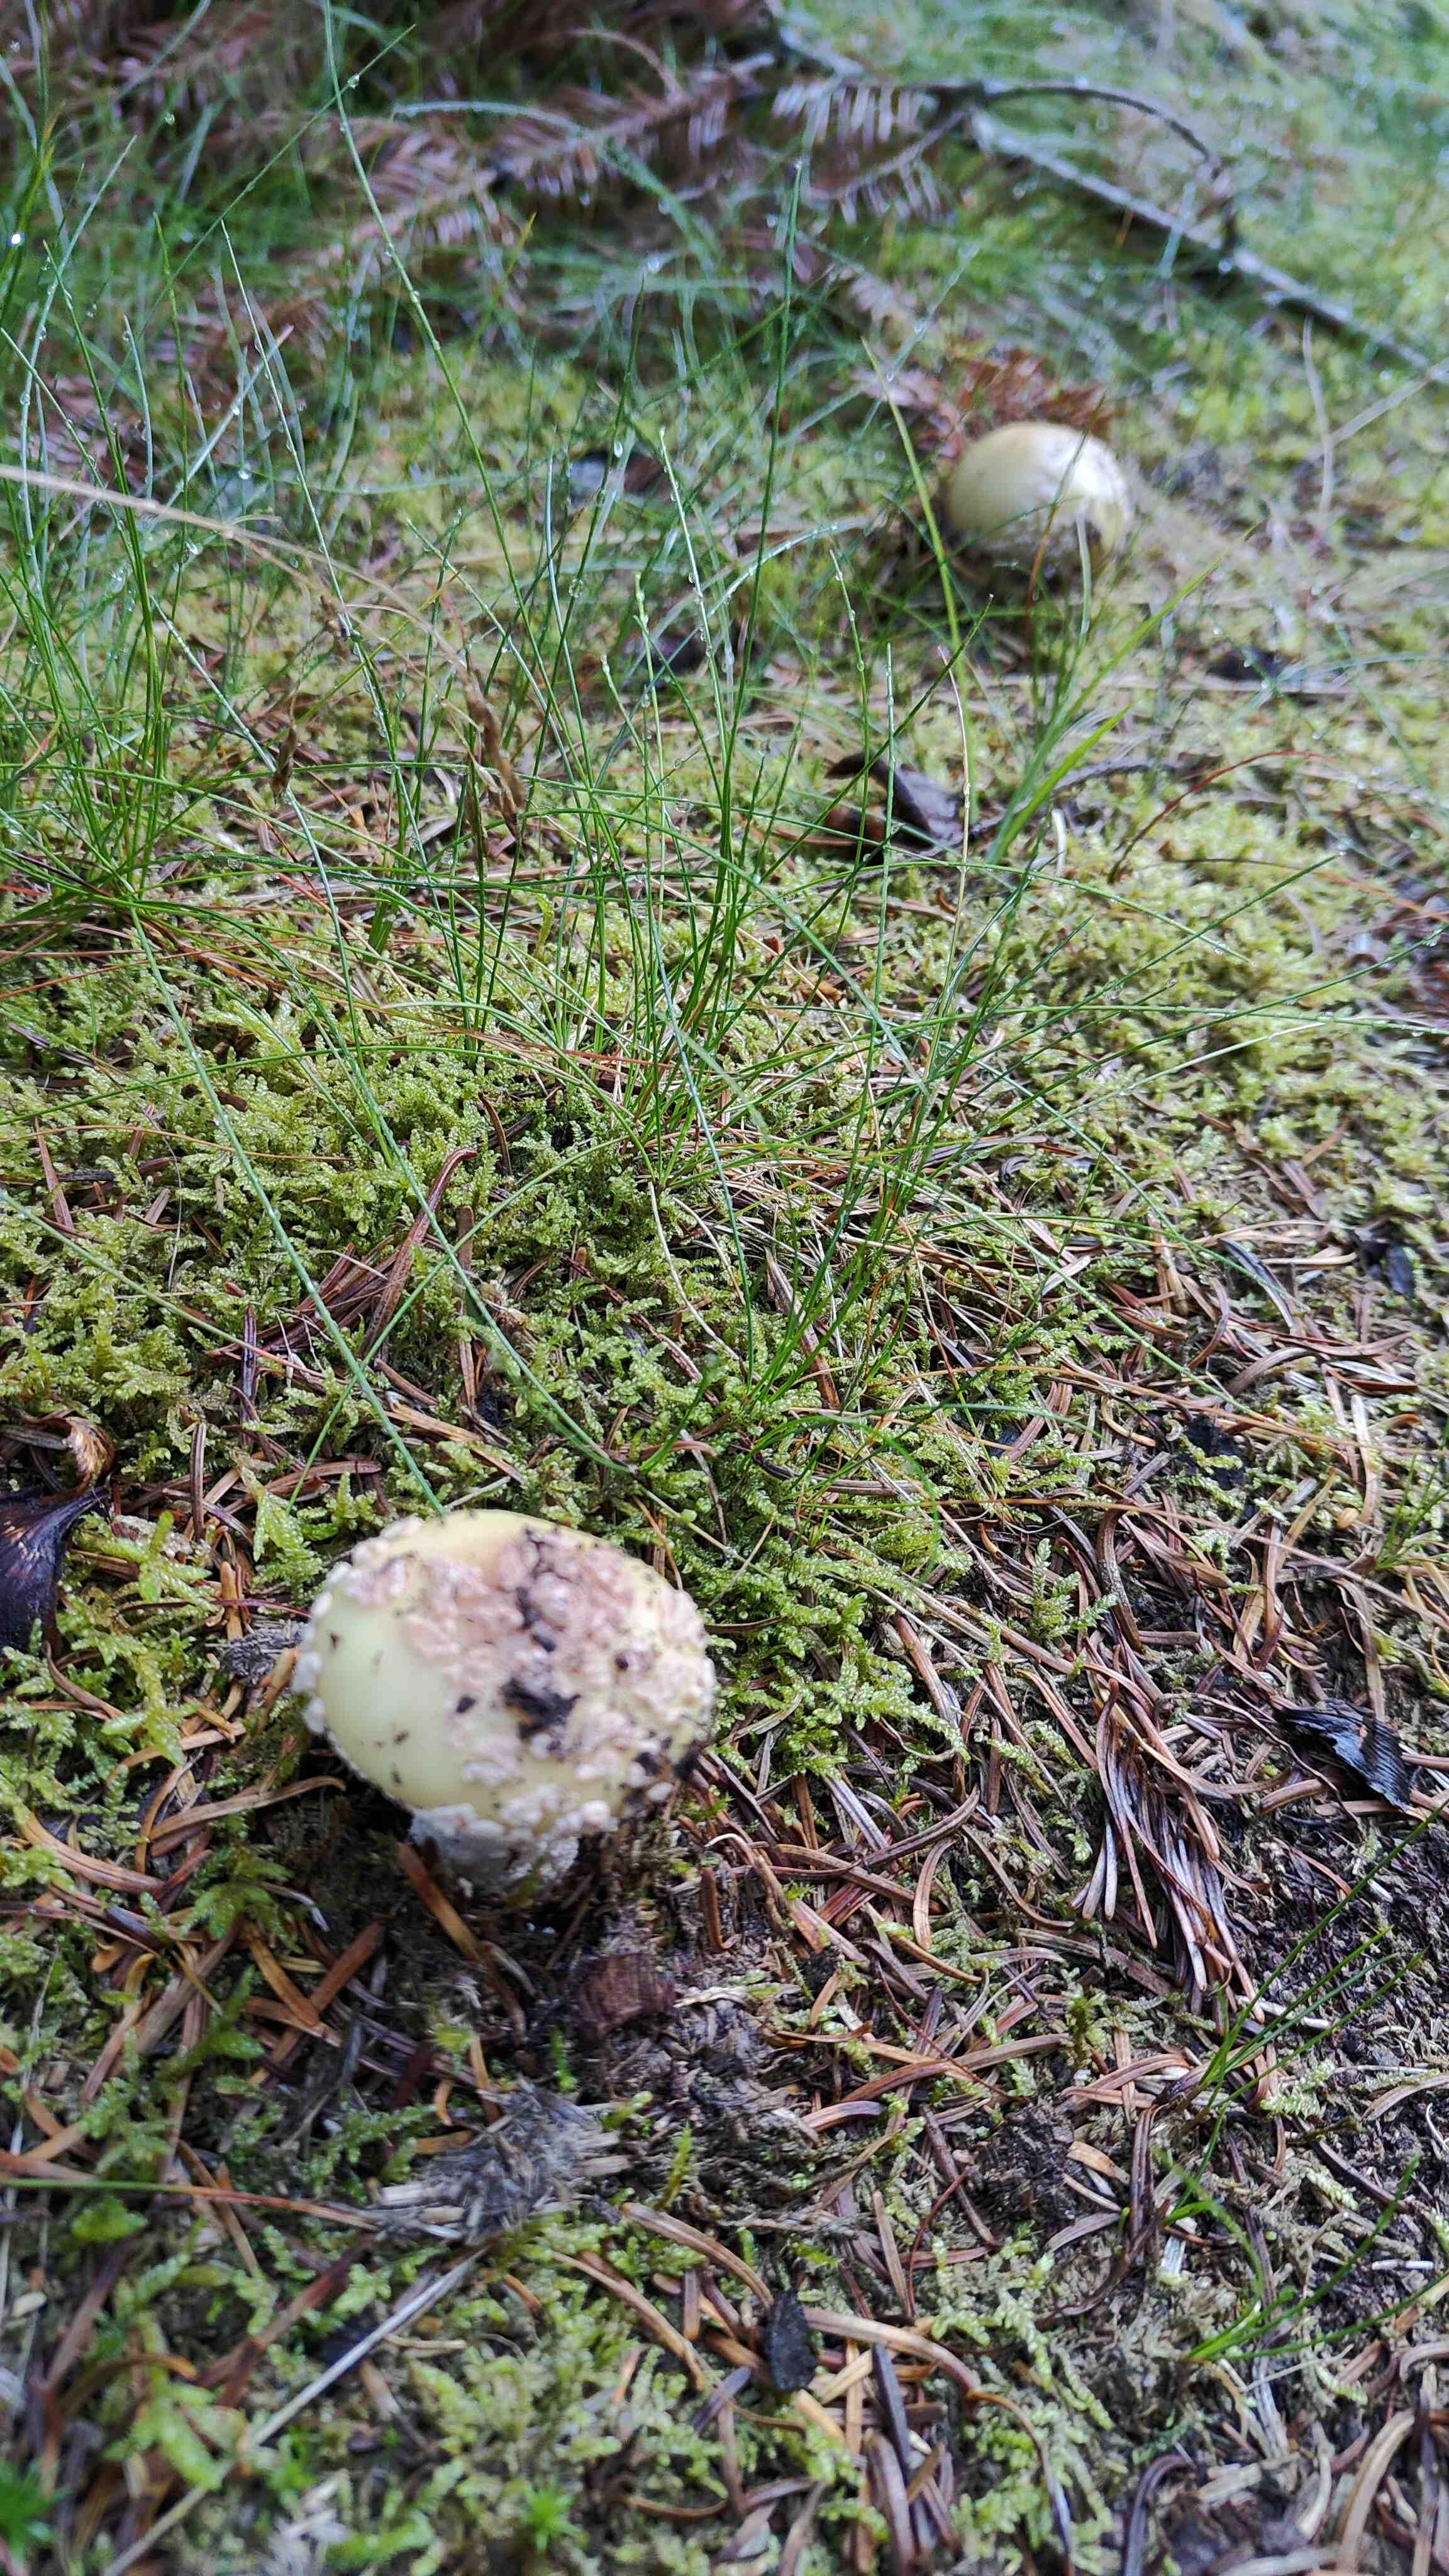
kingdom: Fungi
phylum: Basidiomycota
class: Agaricomycetes
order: Agaricales
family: Amanitaceae
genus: Amanita
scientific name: Amanita rubescens
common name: rødmende fluesvamp
